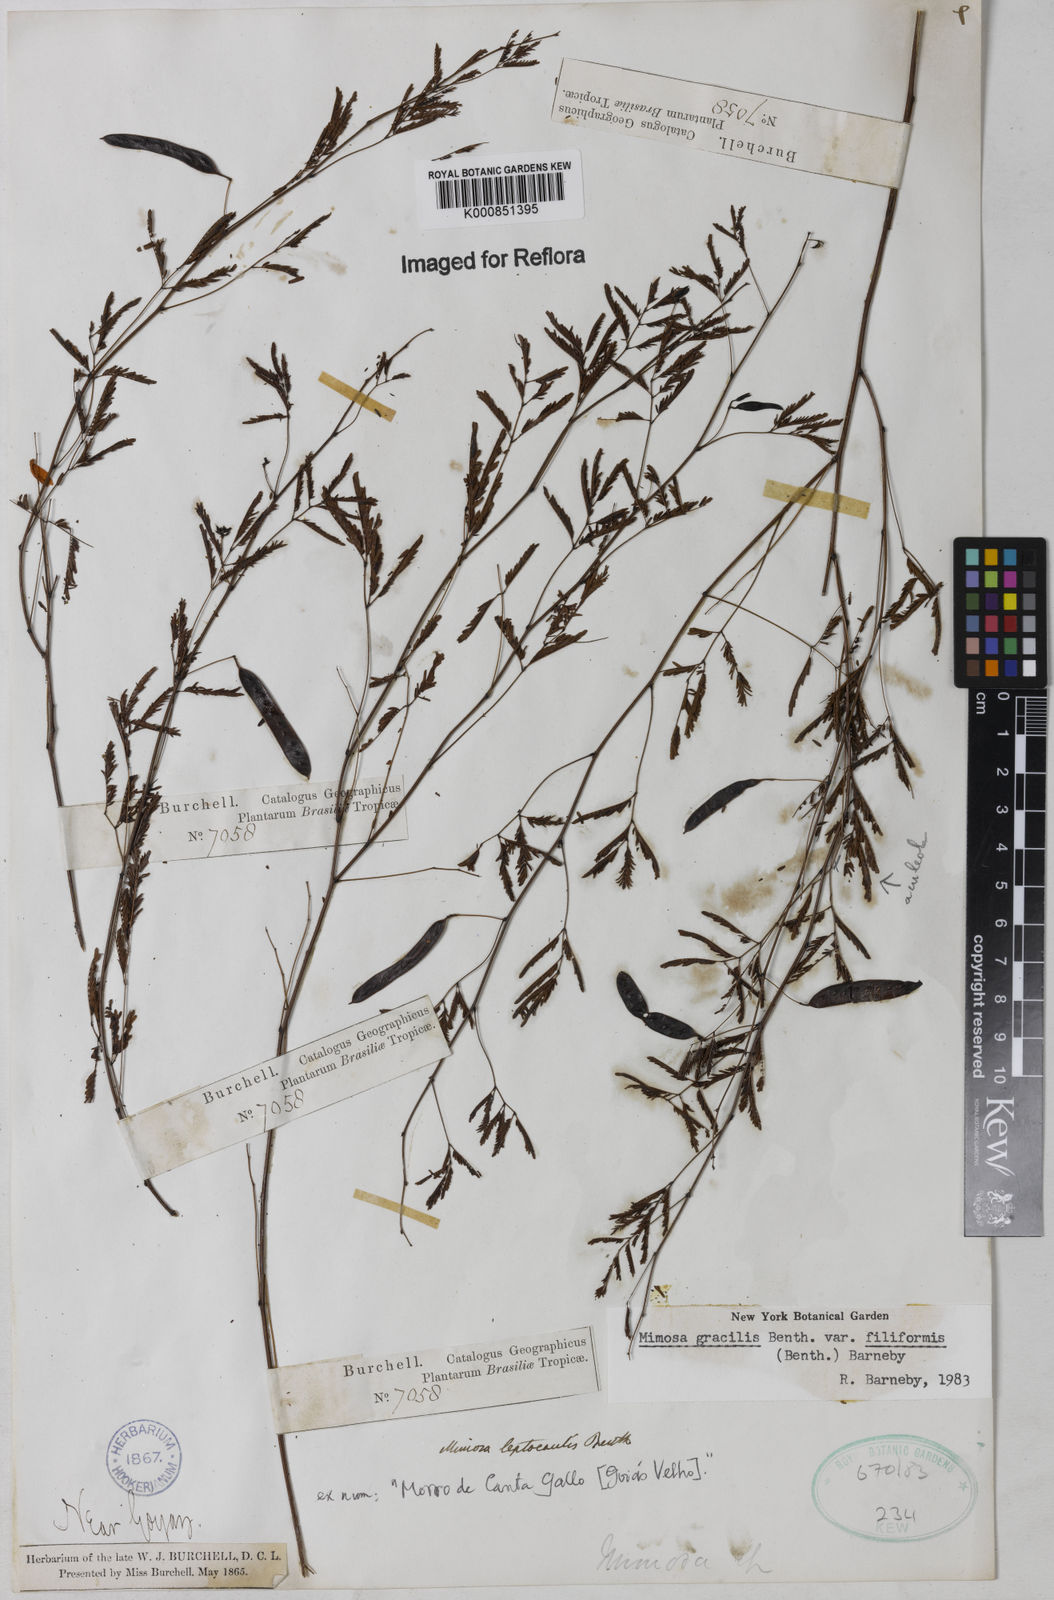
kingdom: Plantae
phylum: Tracheophyta
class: Magnoliopsida
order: Fabales
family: Fabaceae
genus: Mimosa
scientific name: Mimosa gracilis
